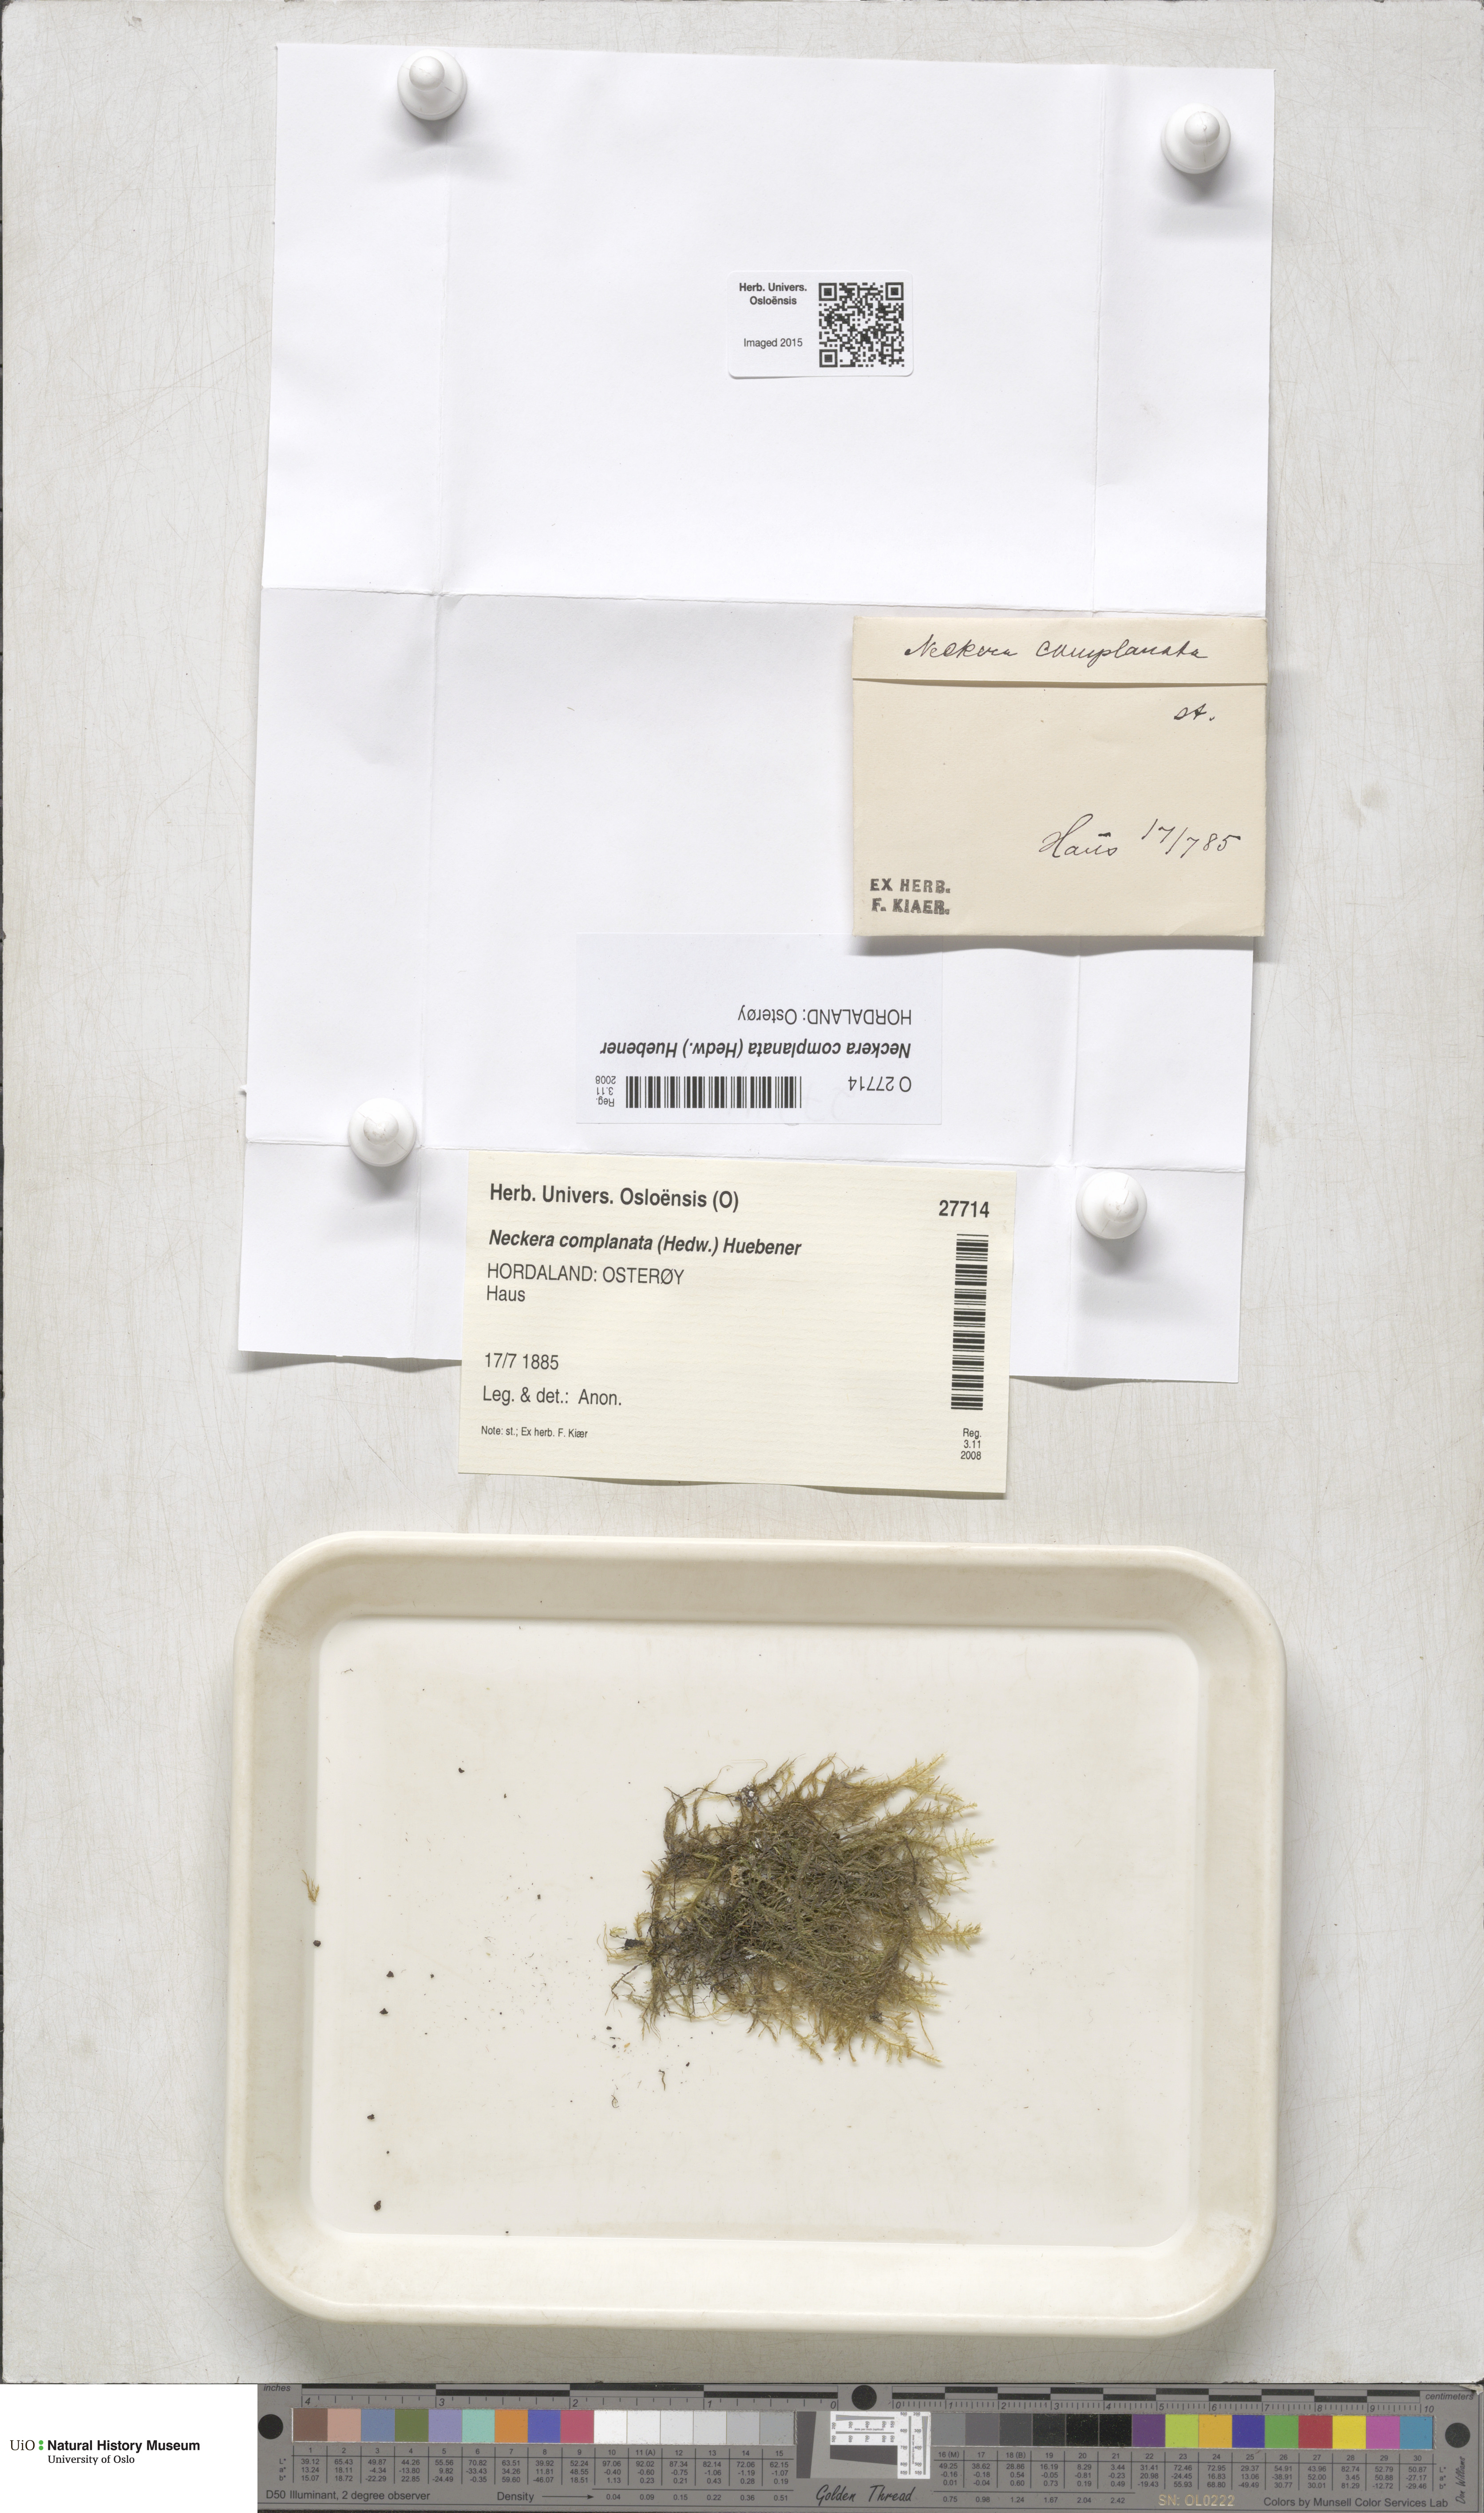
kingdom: Plantae
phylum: Bryophyta
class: Bryopsida
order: Hypnales
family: Neckeraceae
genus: Alleniella
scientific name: Alleniella complanata
